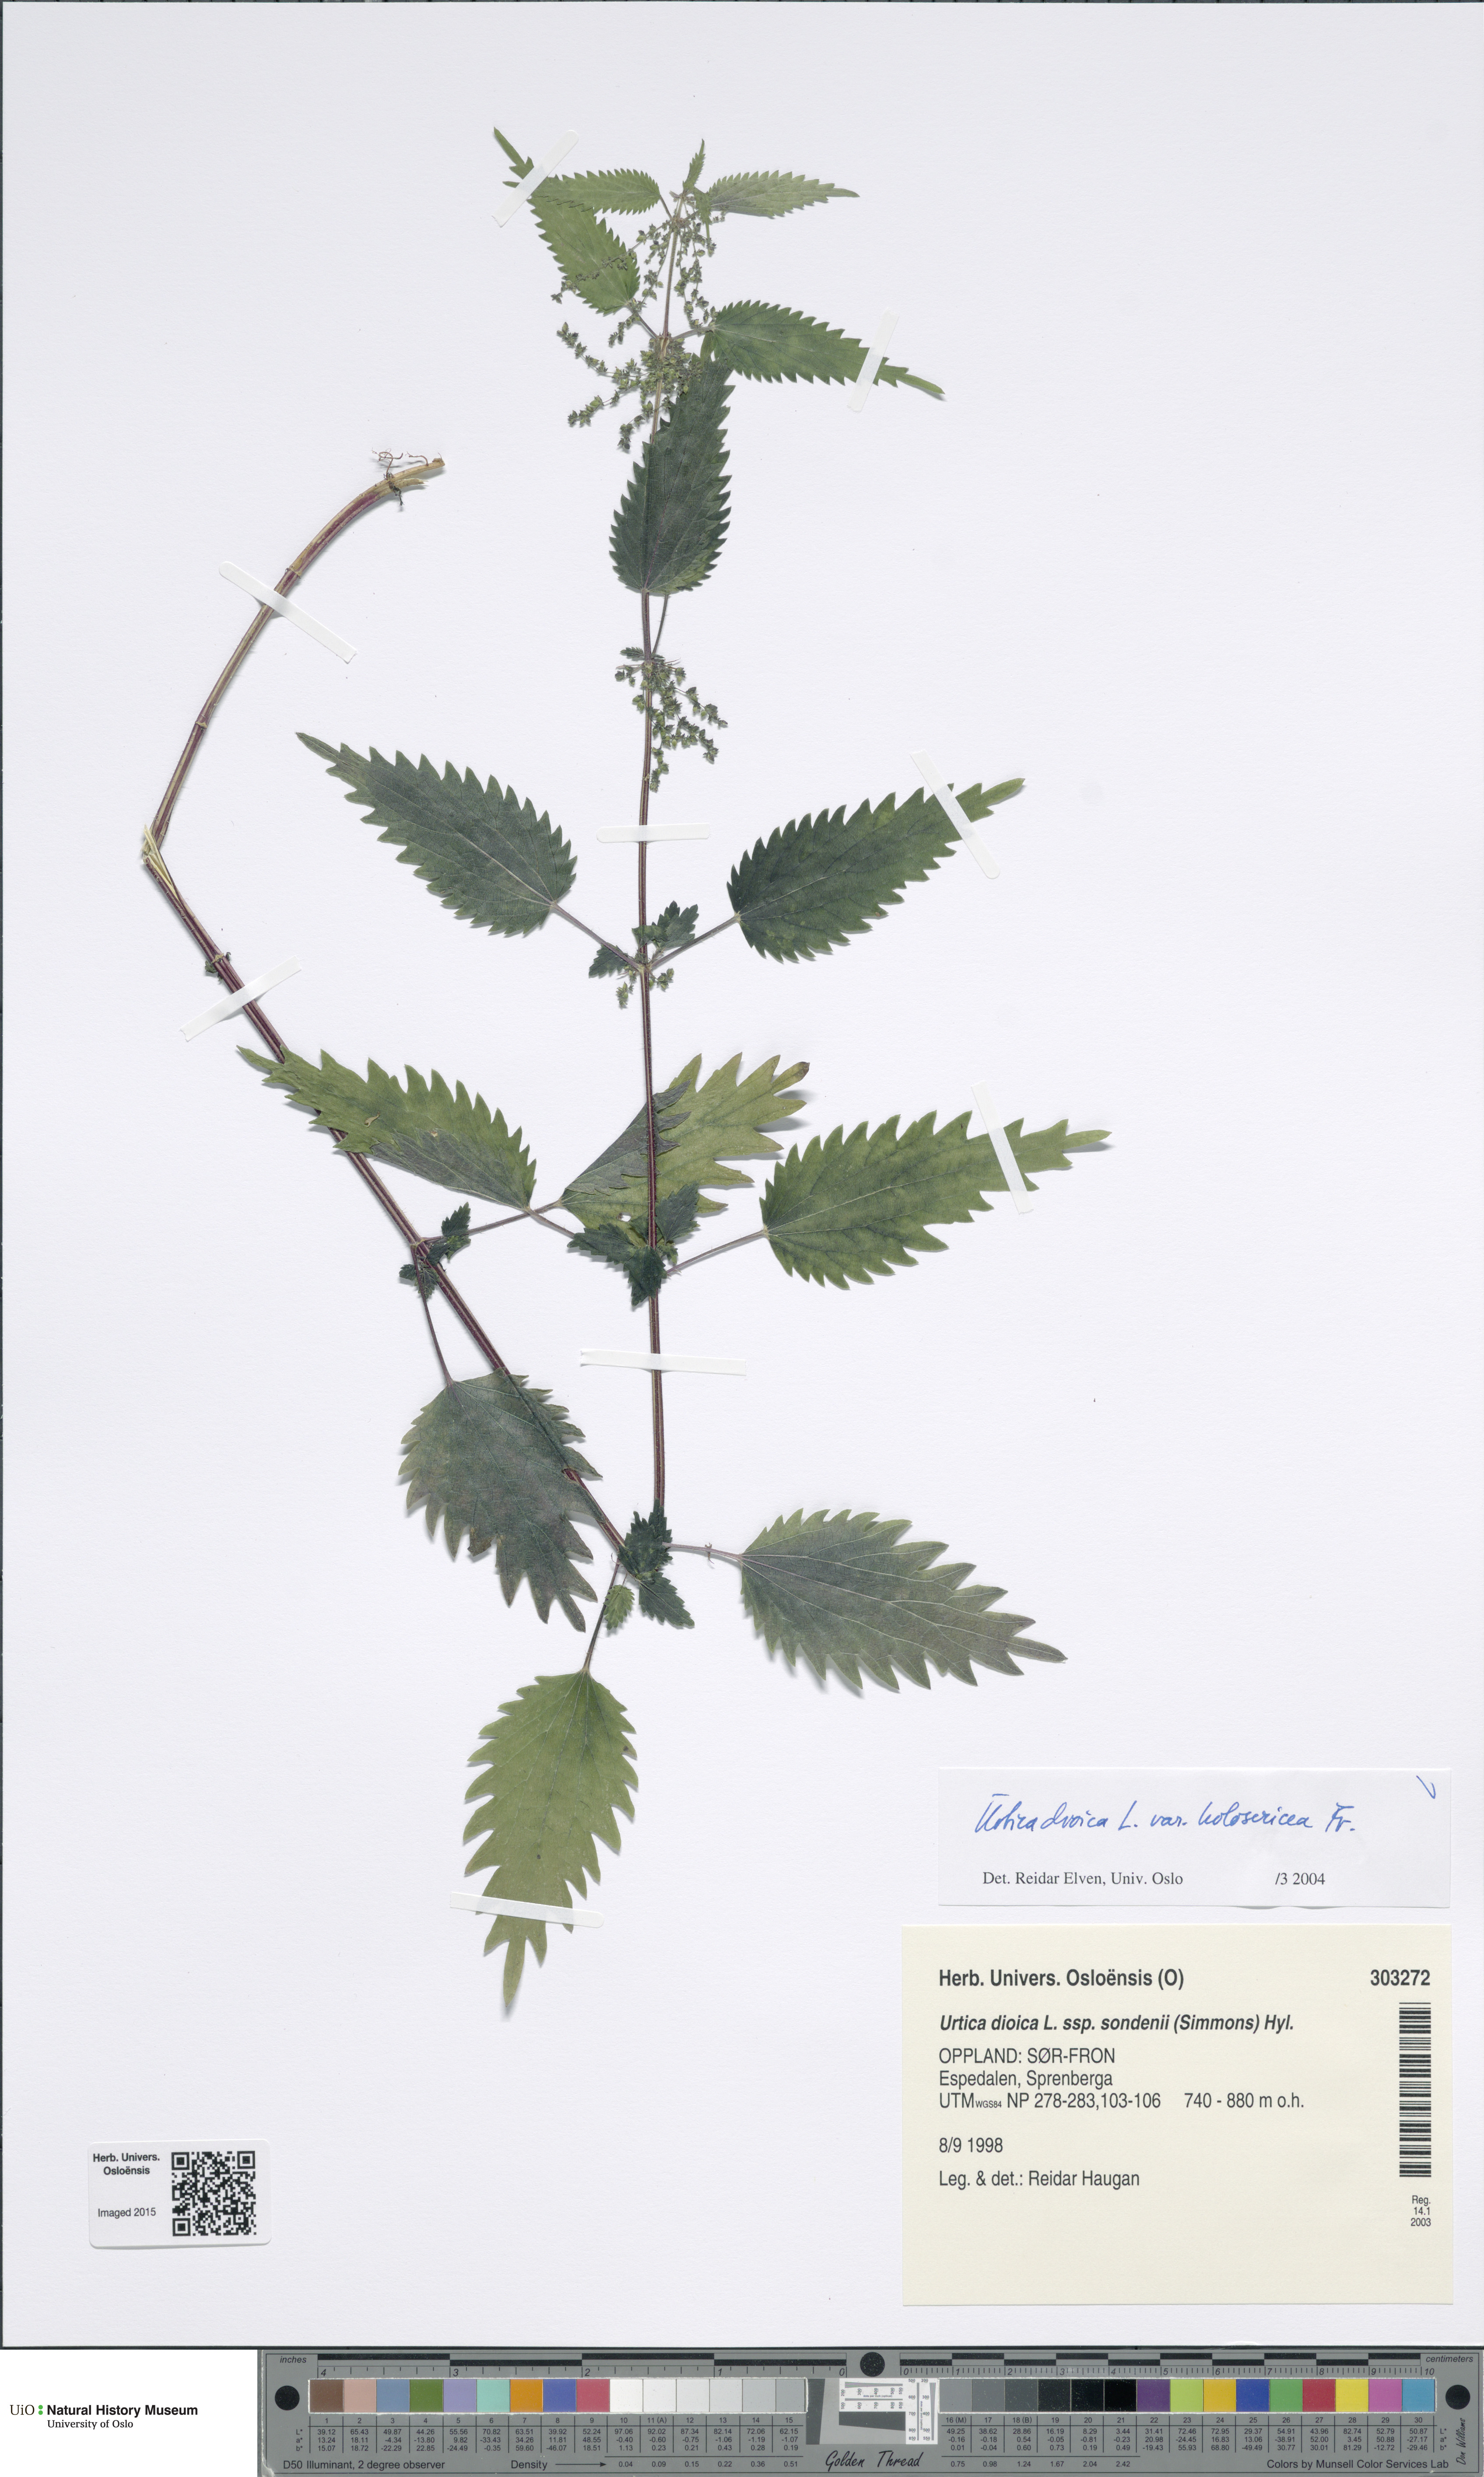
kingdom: Plantae
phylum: Tracheophyta
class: Magnoliopsida
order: Rosales
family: Urticaceae
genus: Urtica
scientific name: Urtica dioica
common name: Common nettle
